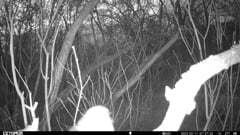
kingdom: Animalia
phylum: Chordata
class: Aves
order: Passeriformes
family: Muscicapidae
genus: Erithacus
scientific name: Erithacus rubecula
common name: European robin
